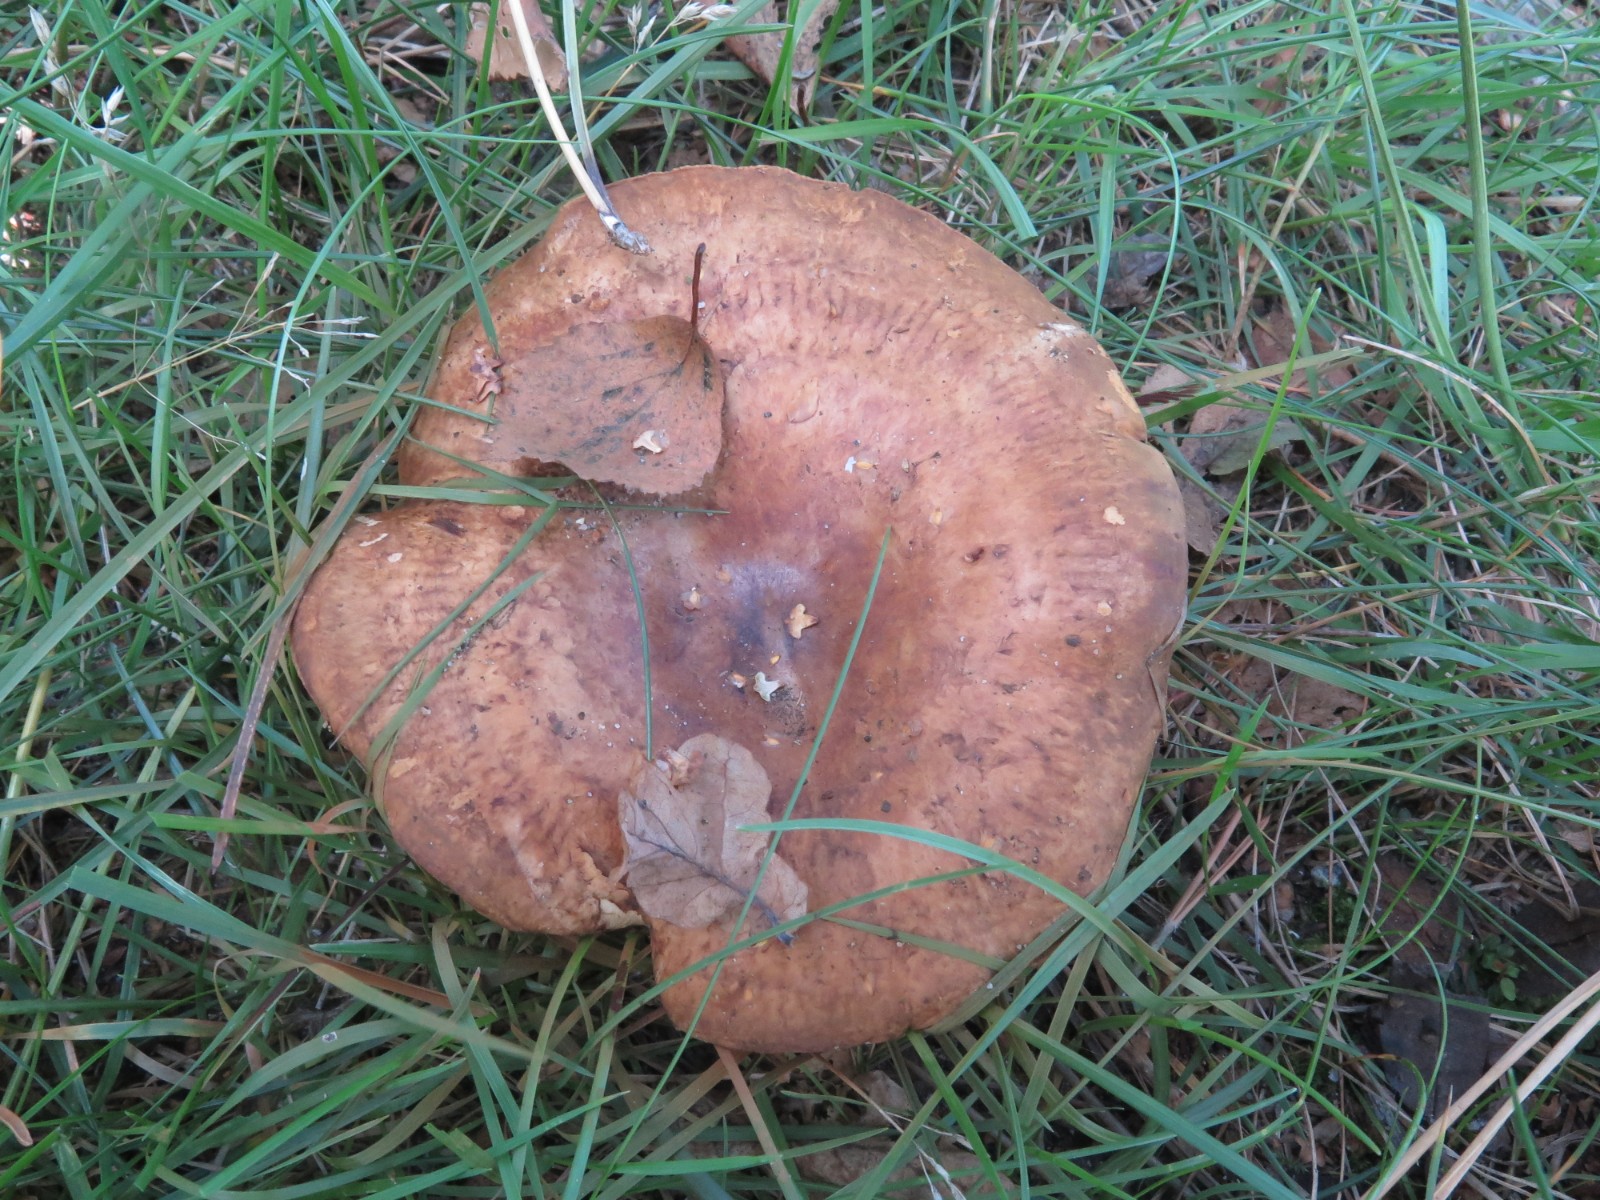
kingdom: Fungi
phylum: Basidiomycota
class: Agaricomycetes
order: Boletales
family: Paxillaceae
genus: Paxillus
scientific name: Paxillus involutus
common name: almindelig netbladhat
